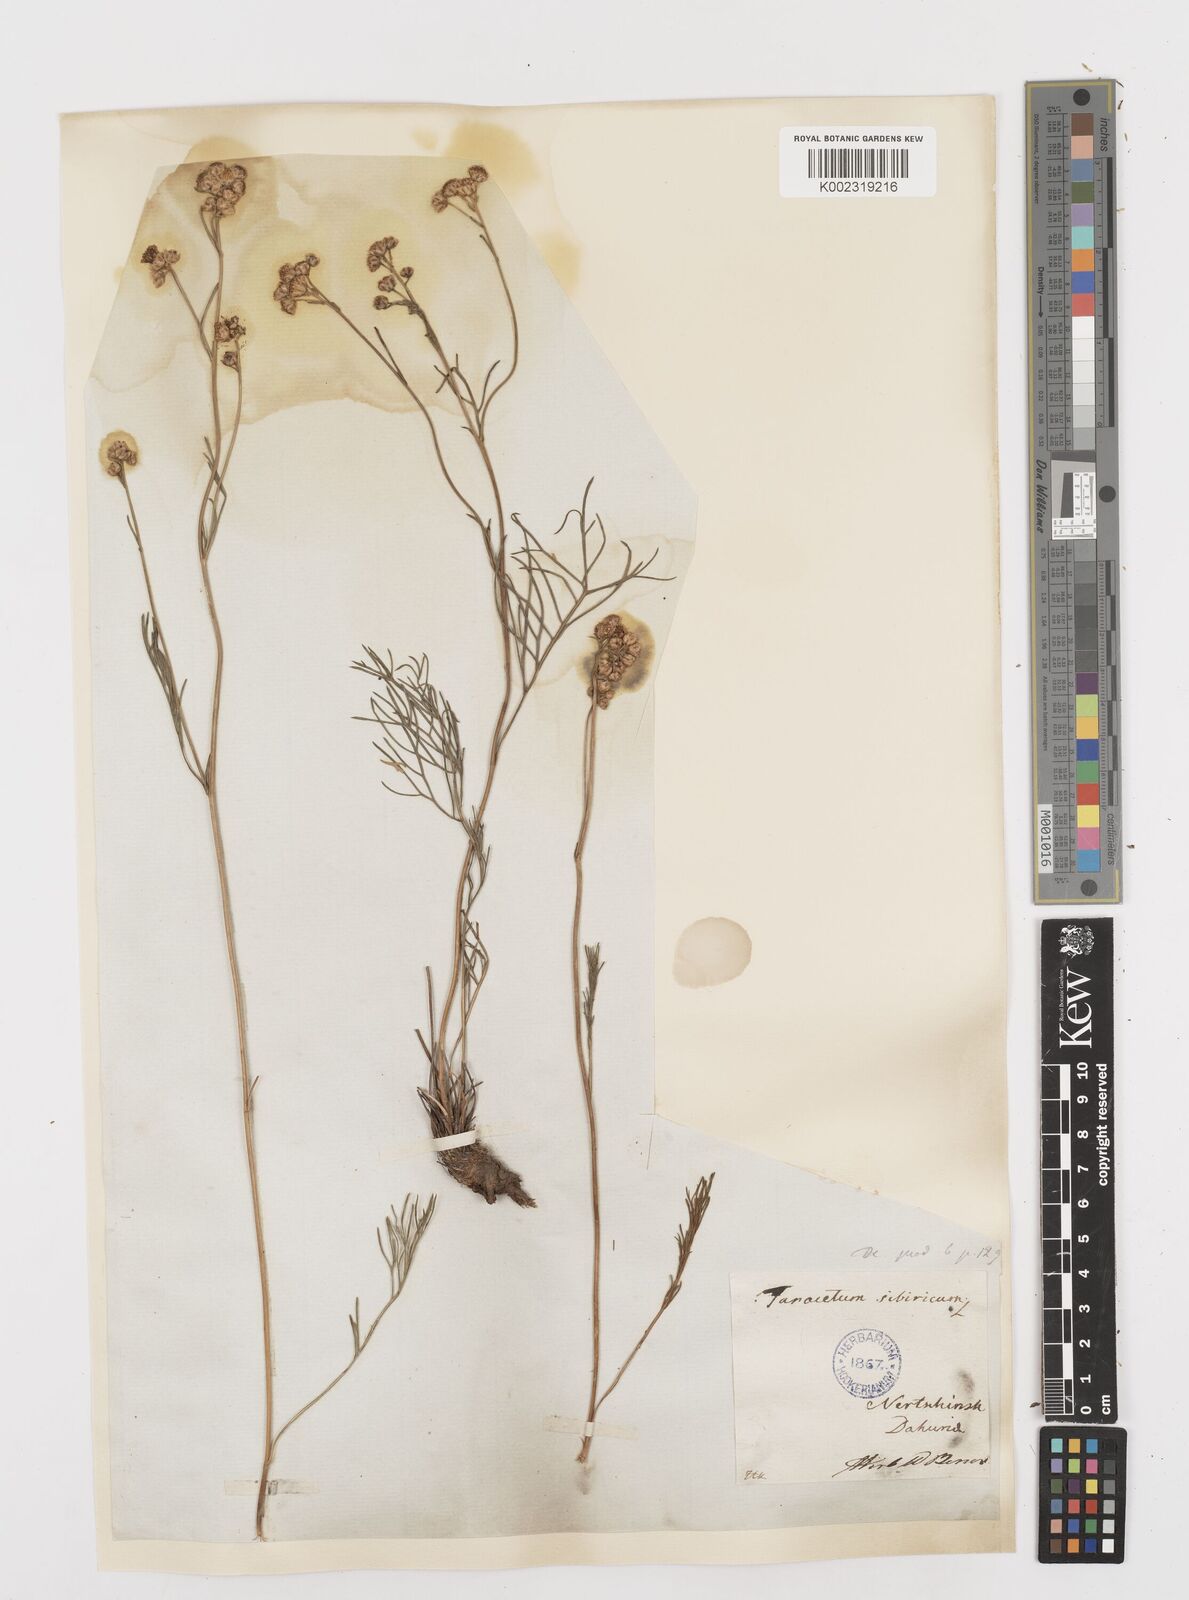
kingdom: Plantae
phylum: Tracheophyta
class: Magnoliopsida
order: Asterales
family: Asteraceae
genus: Filifolium
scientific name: Filifolium sibiricum
